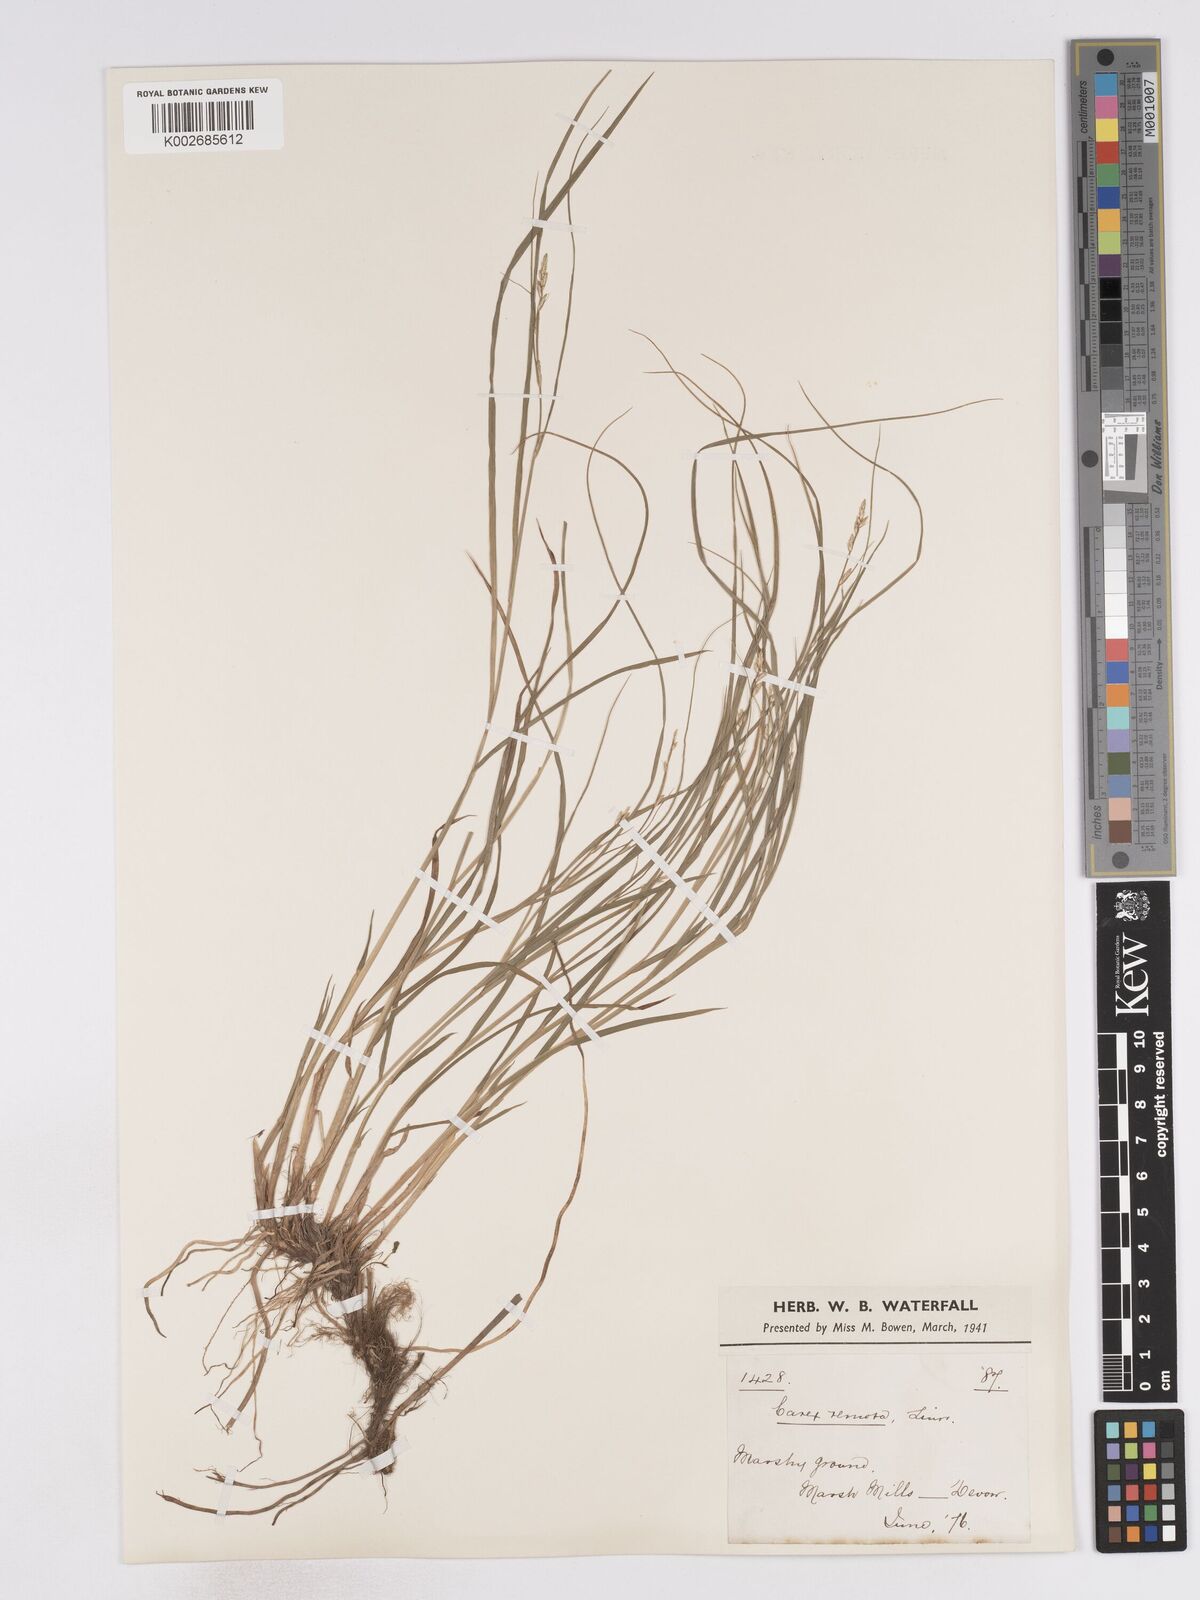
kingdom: Plantae
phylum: Tracheophyta
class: Liliopsida
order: Poales
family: Cyperaceae
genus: Carex
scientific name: Carex remota
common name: Remote sedge
